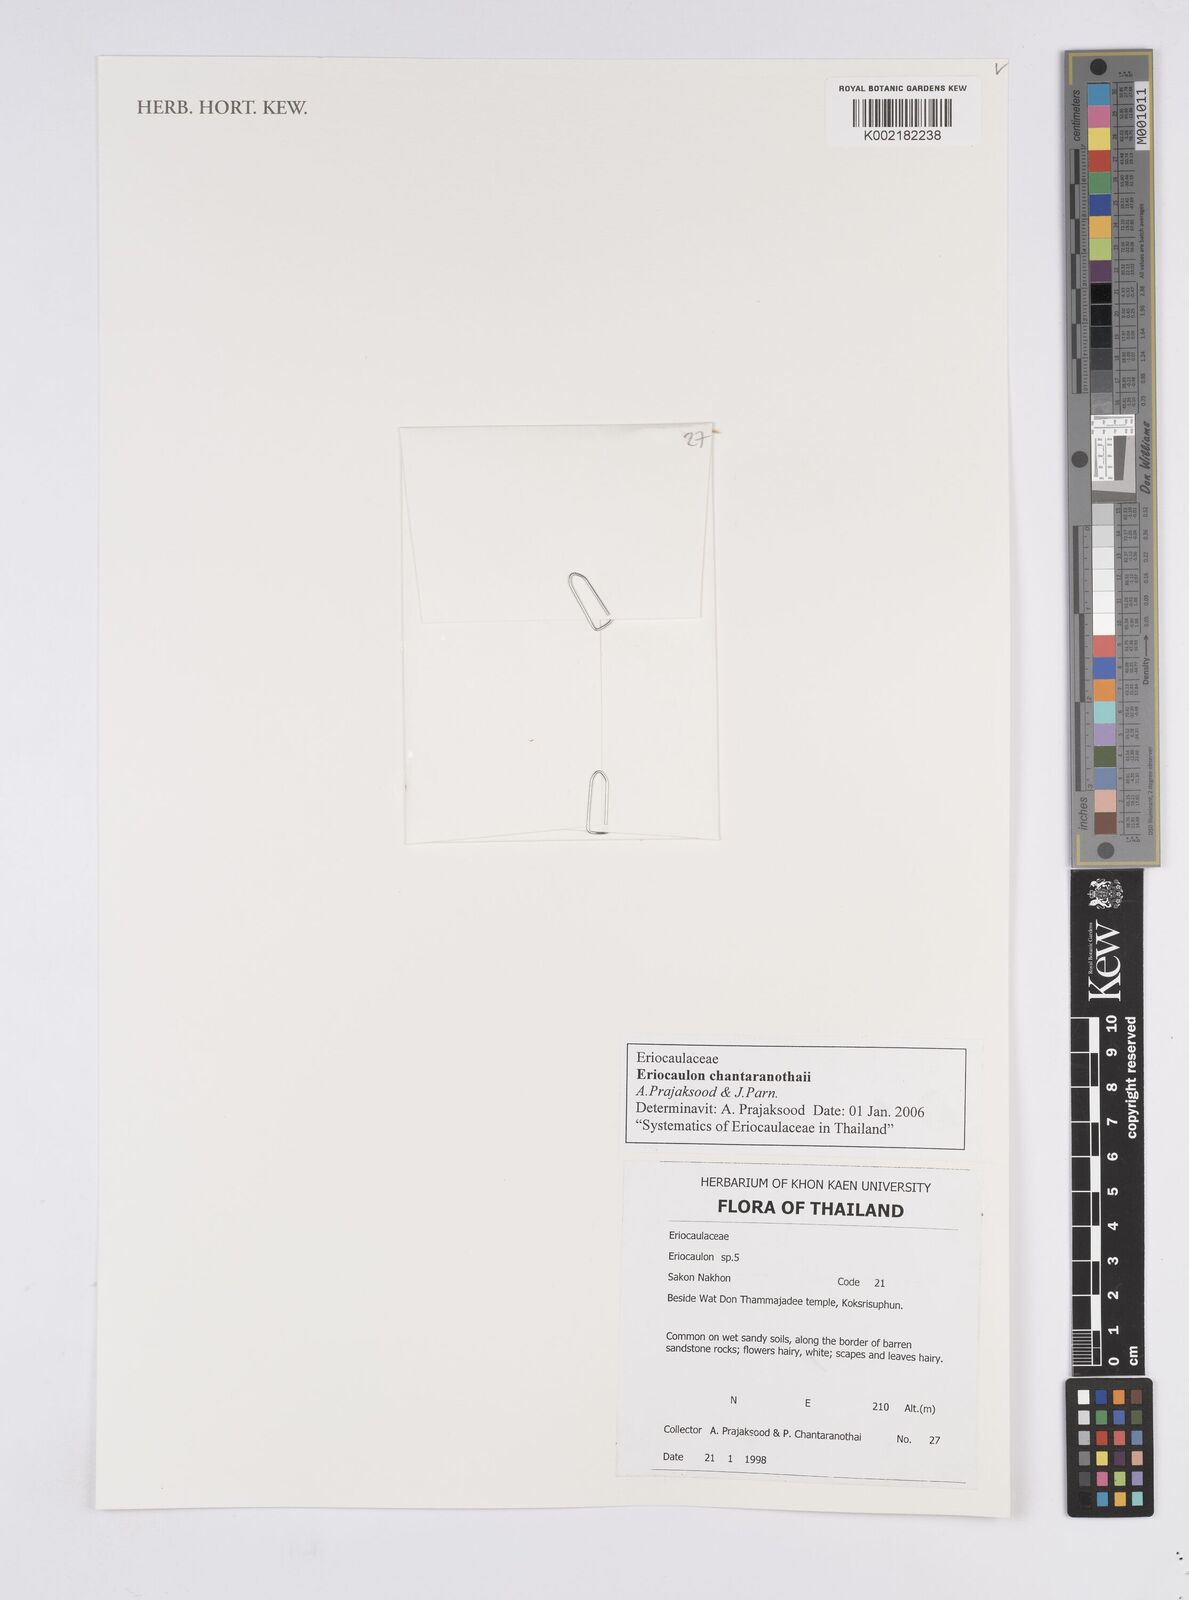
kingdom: Plantae
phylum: Tracheophyta
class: Liliopsida
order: Poales
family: Eriocaulaceae
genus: Eriocaulon
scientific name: Eriocaulon chantaranothaii
